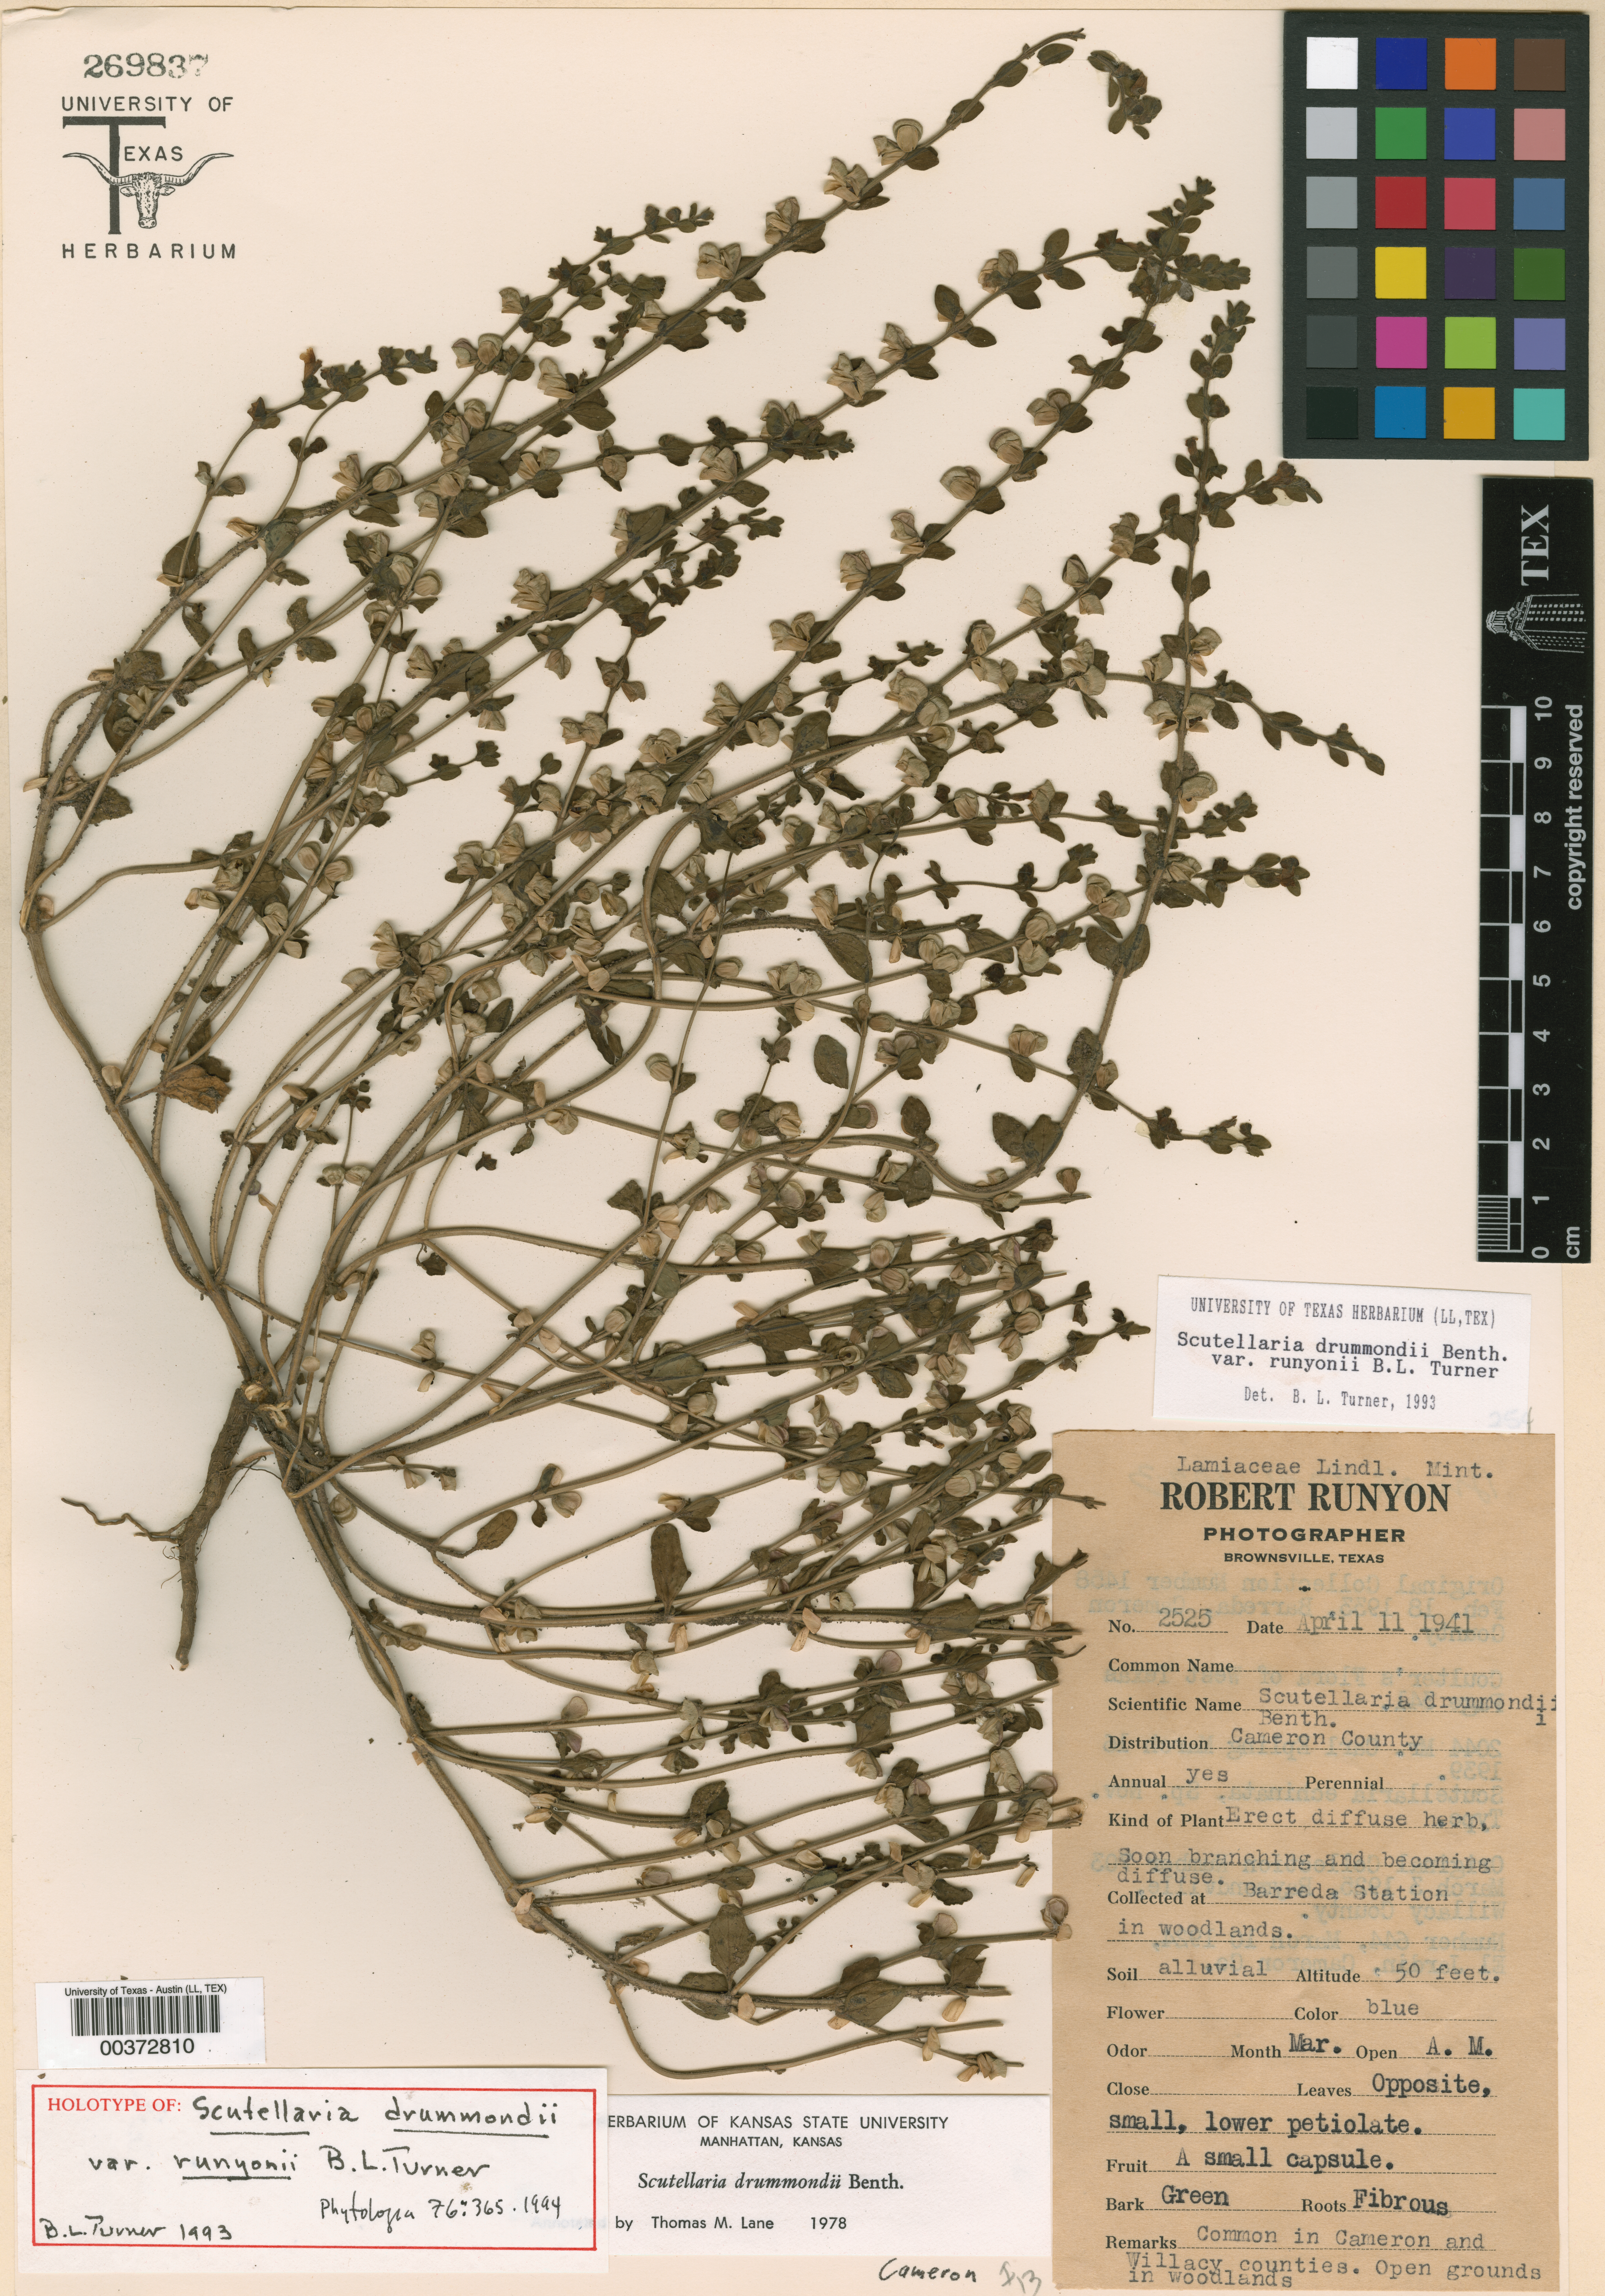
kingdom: Plantae
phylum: Tracheophyta
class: Magnoliopsida
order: Malpighiales
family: Hypericaceae
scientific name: Hypericaceae
